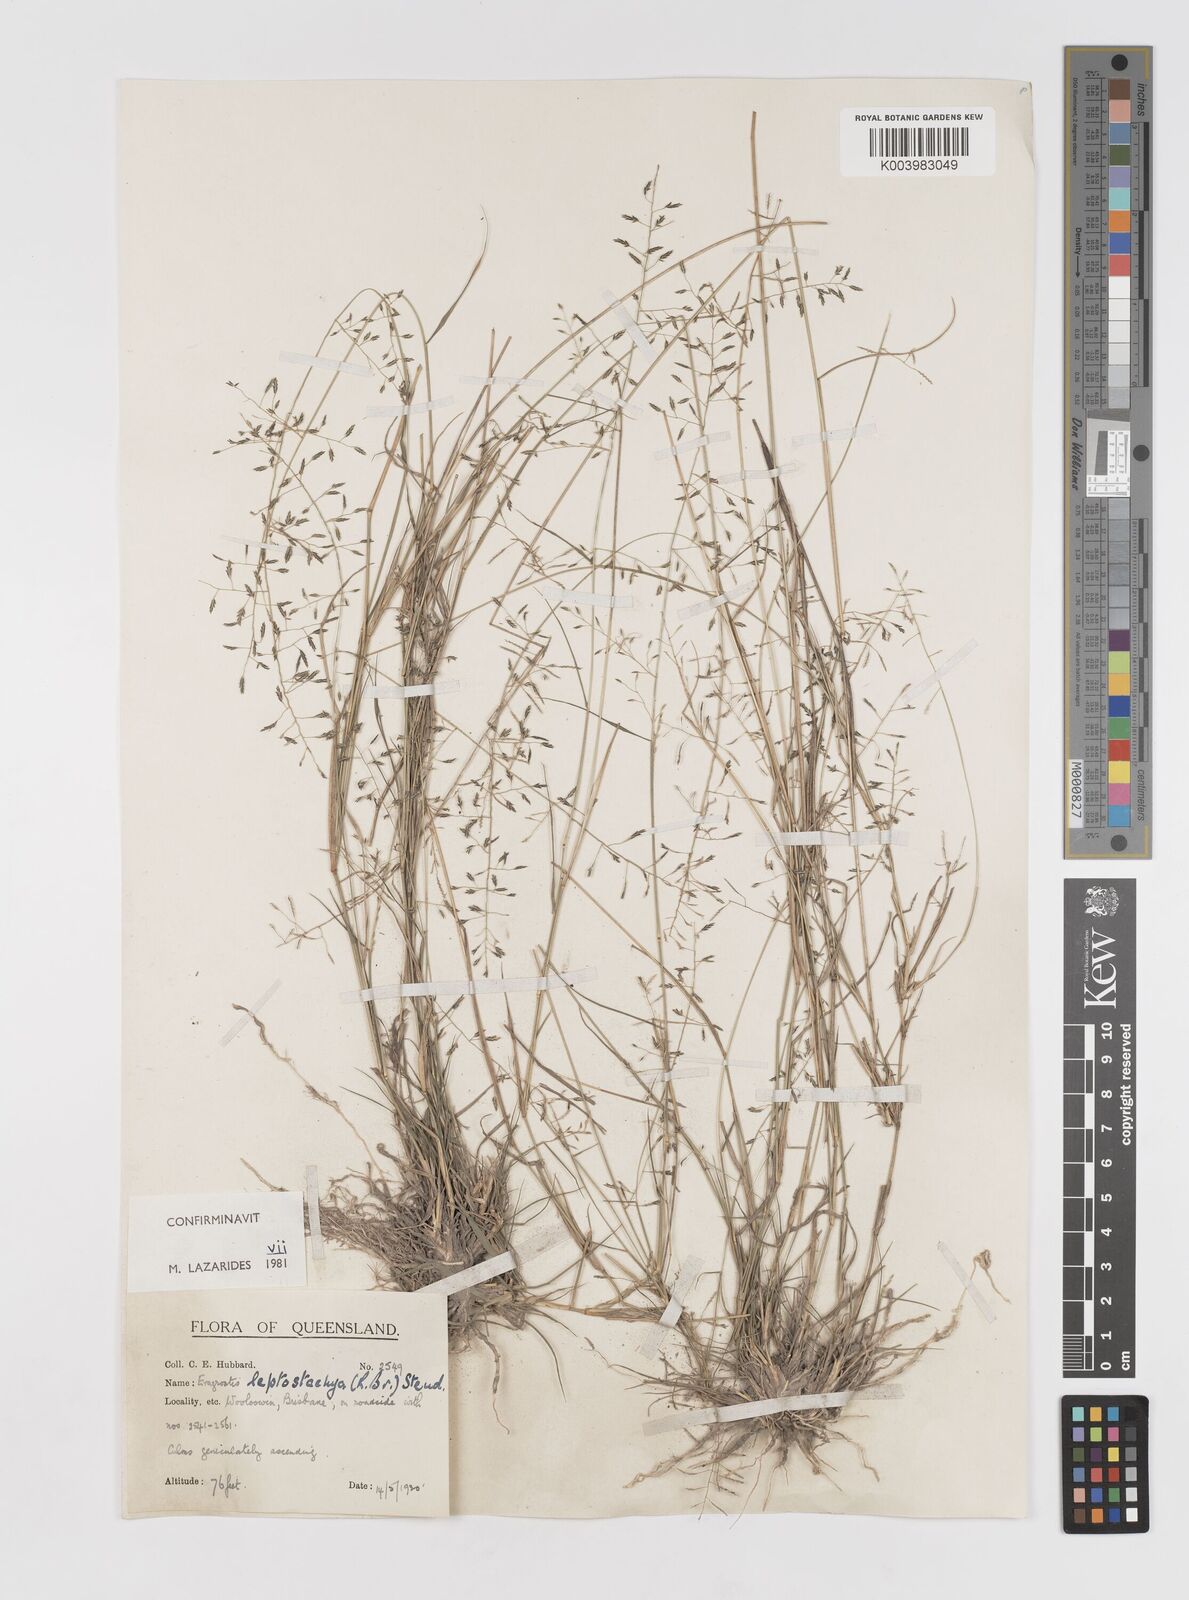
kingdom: Plantae
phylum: Tracheophyta
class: Liliopsida
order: Poales
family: Poaceae
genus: Eragrostis
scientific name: Eragrostis leptostachya
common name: Australian lovegrass
